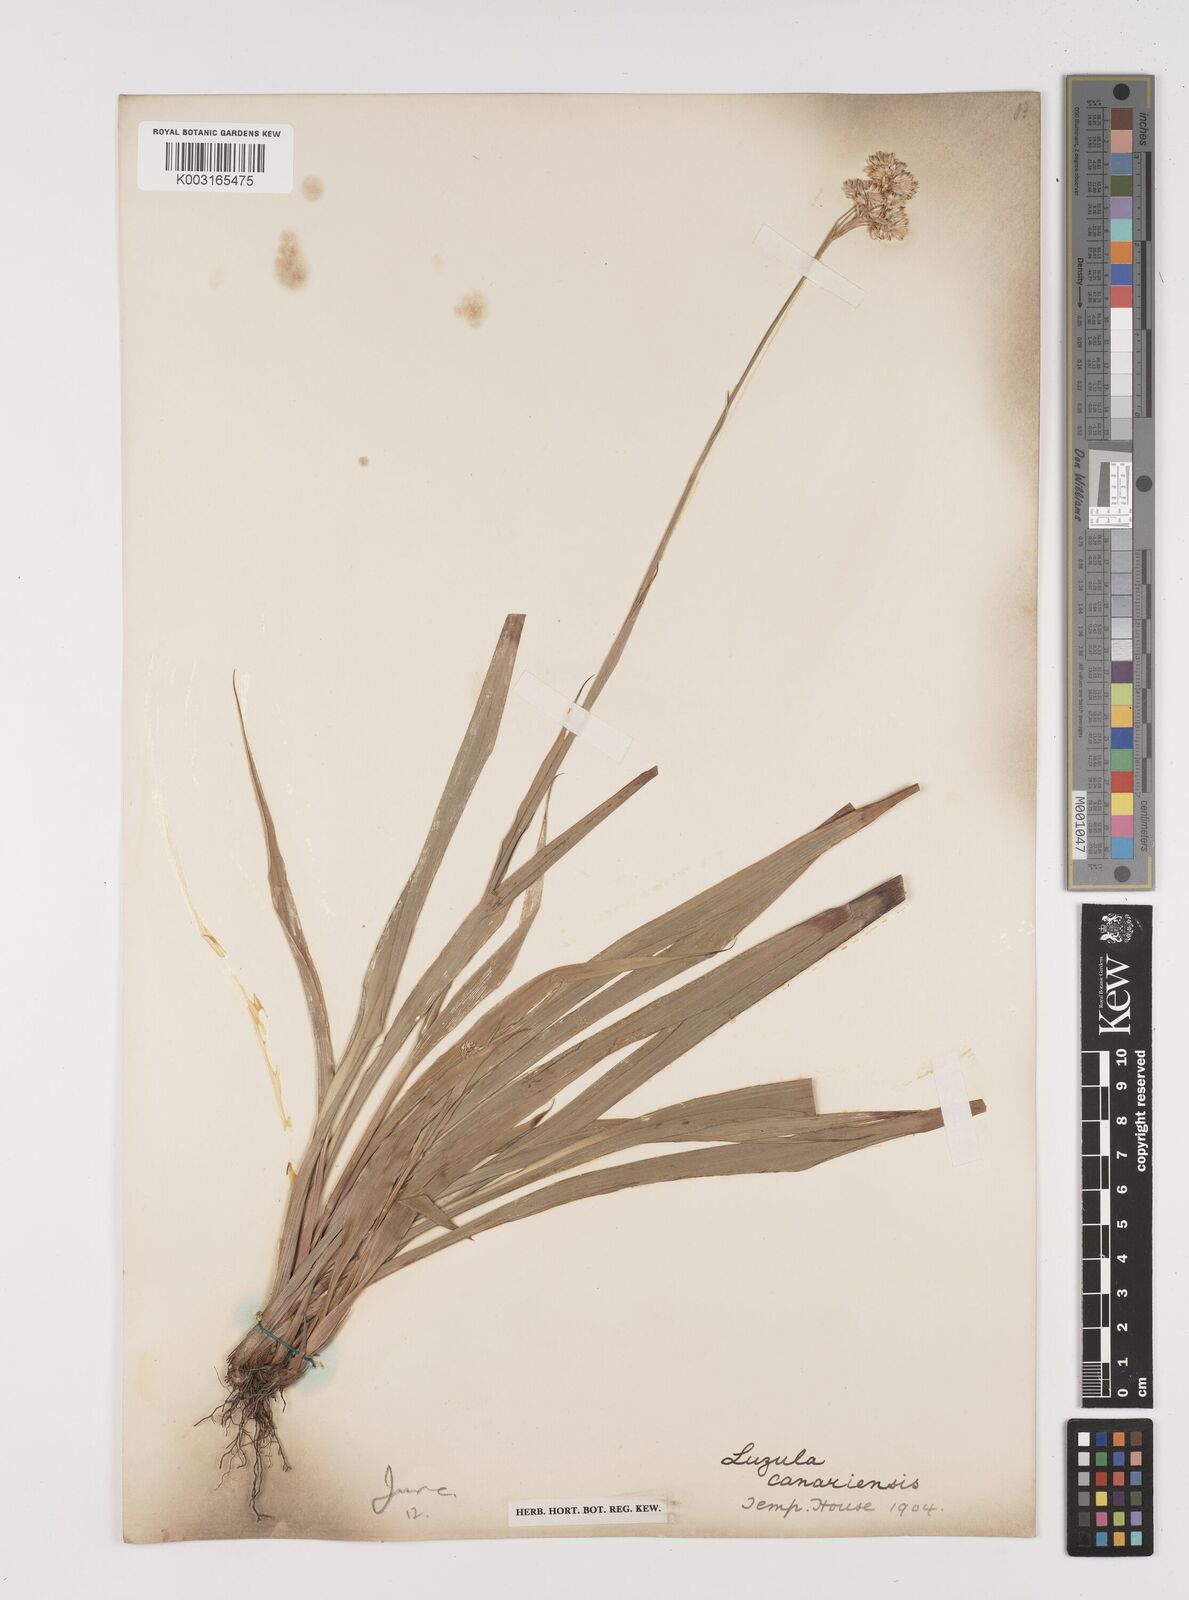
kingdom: Plantae
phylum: Tracheophyta
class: Liliopsida
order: Poales
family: Juncaceae
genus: Luzula
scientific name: Luzula canariensis
